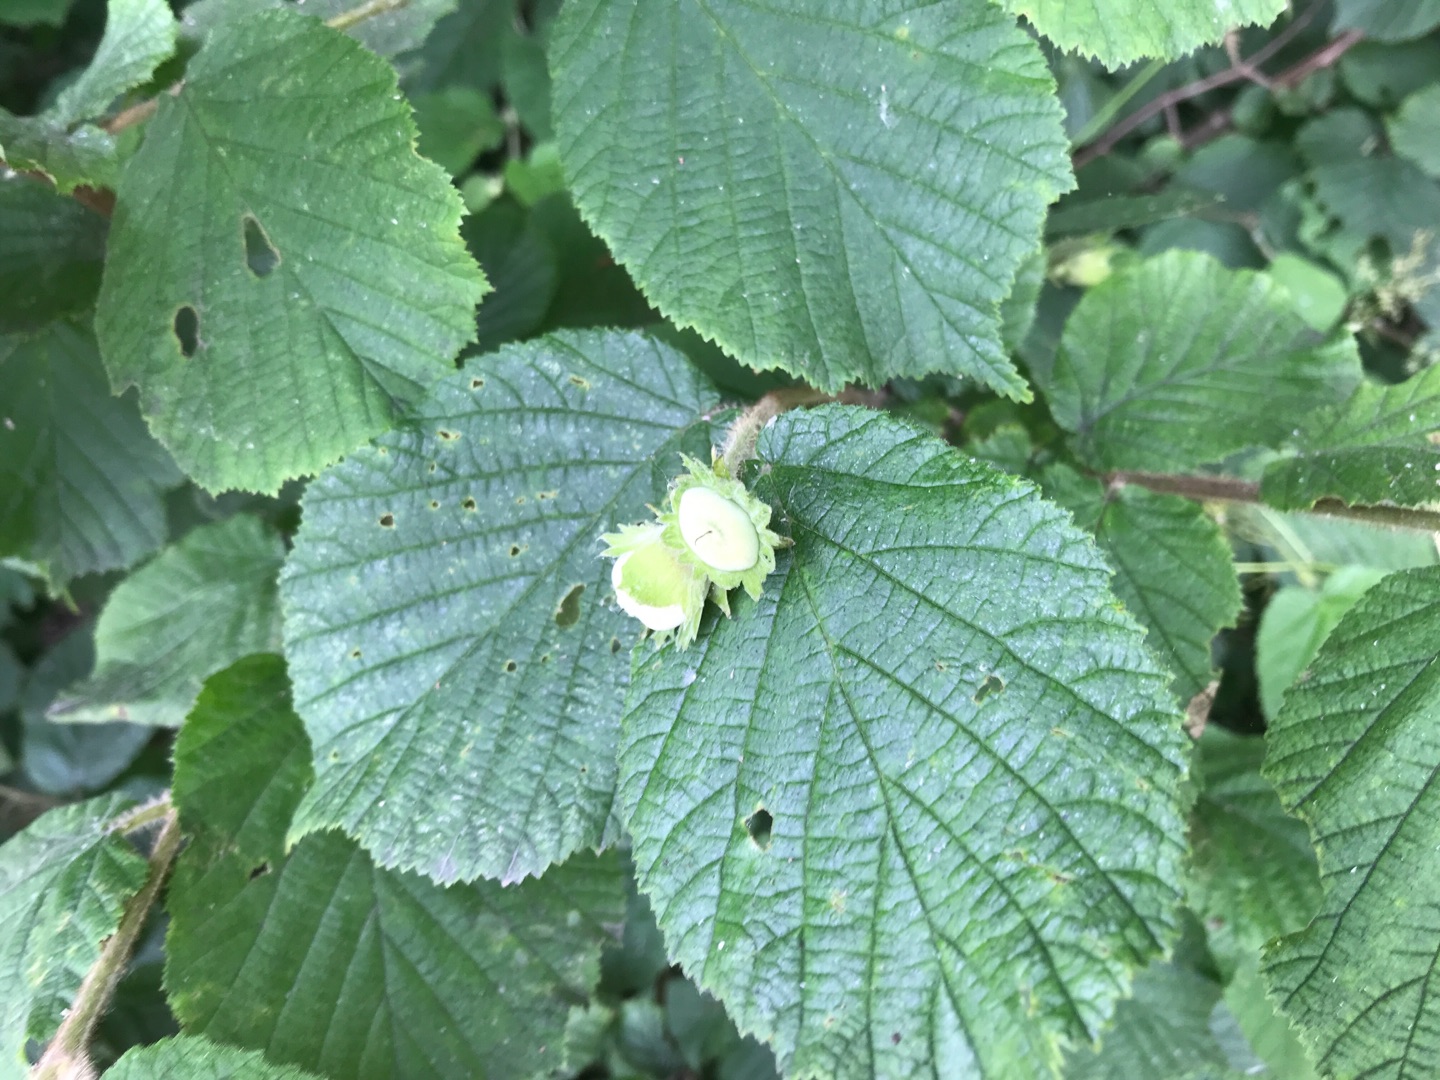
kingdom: Plantae
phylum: Tracheophyta
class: Magnoliopsida
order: Fagales
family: Betulaceae
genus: Corylus
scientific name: Corylus avellana
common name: Hassel
